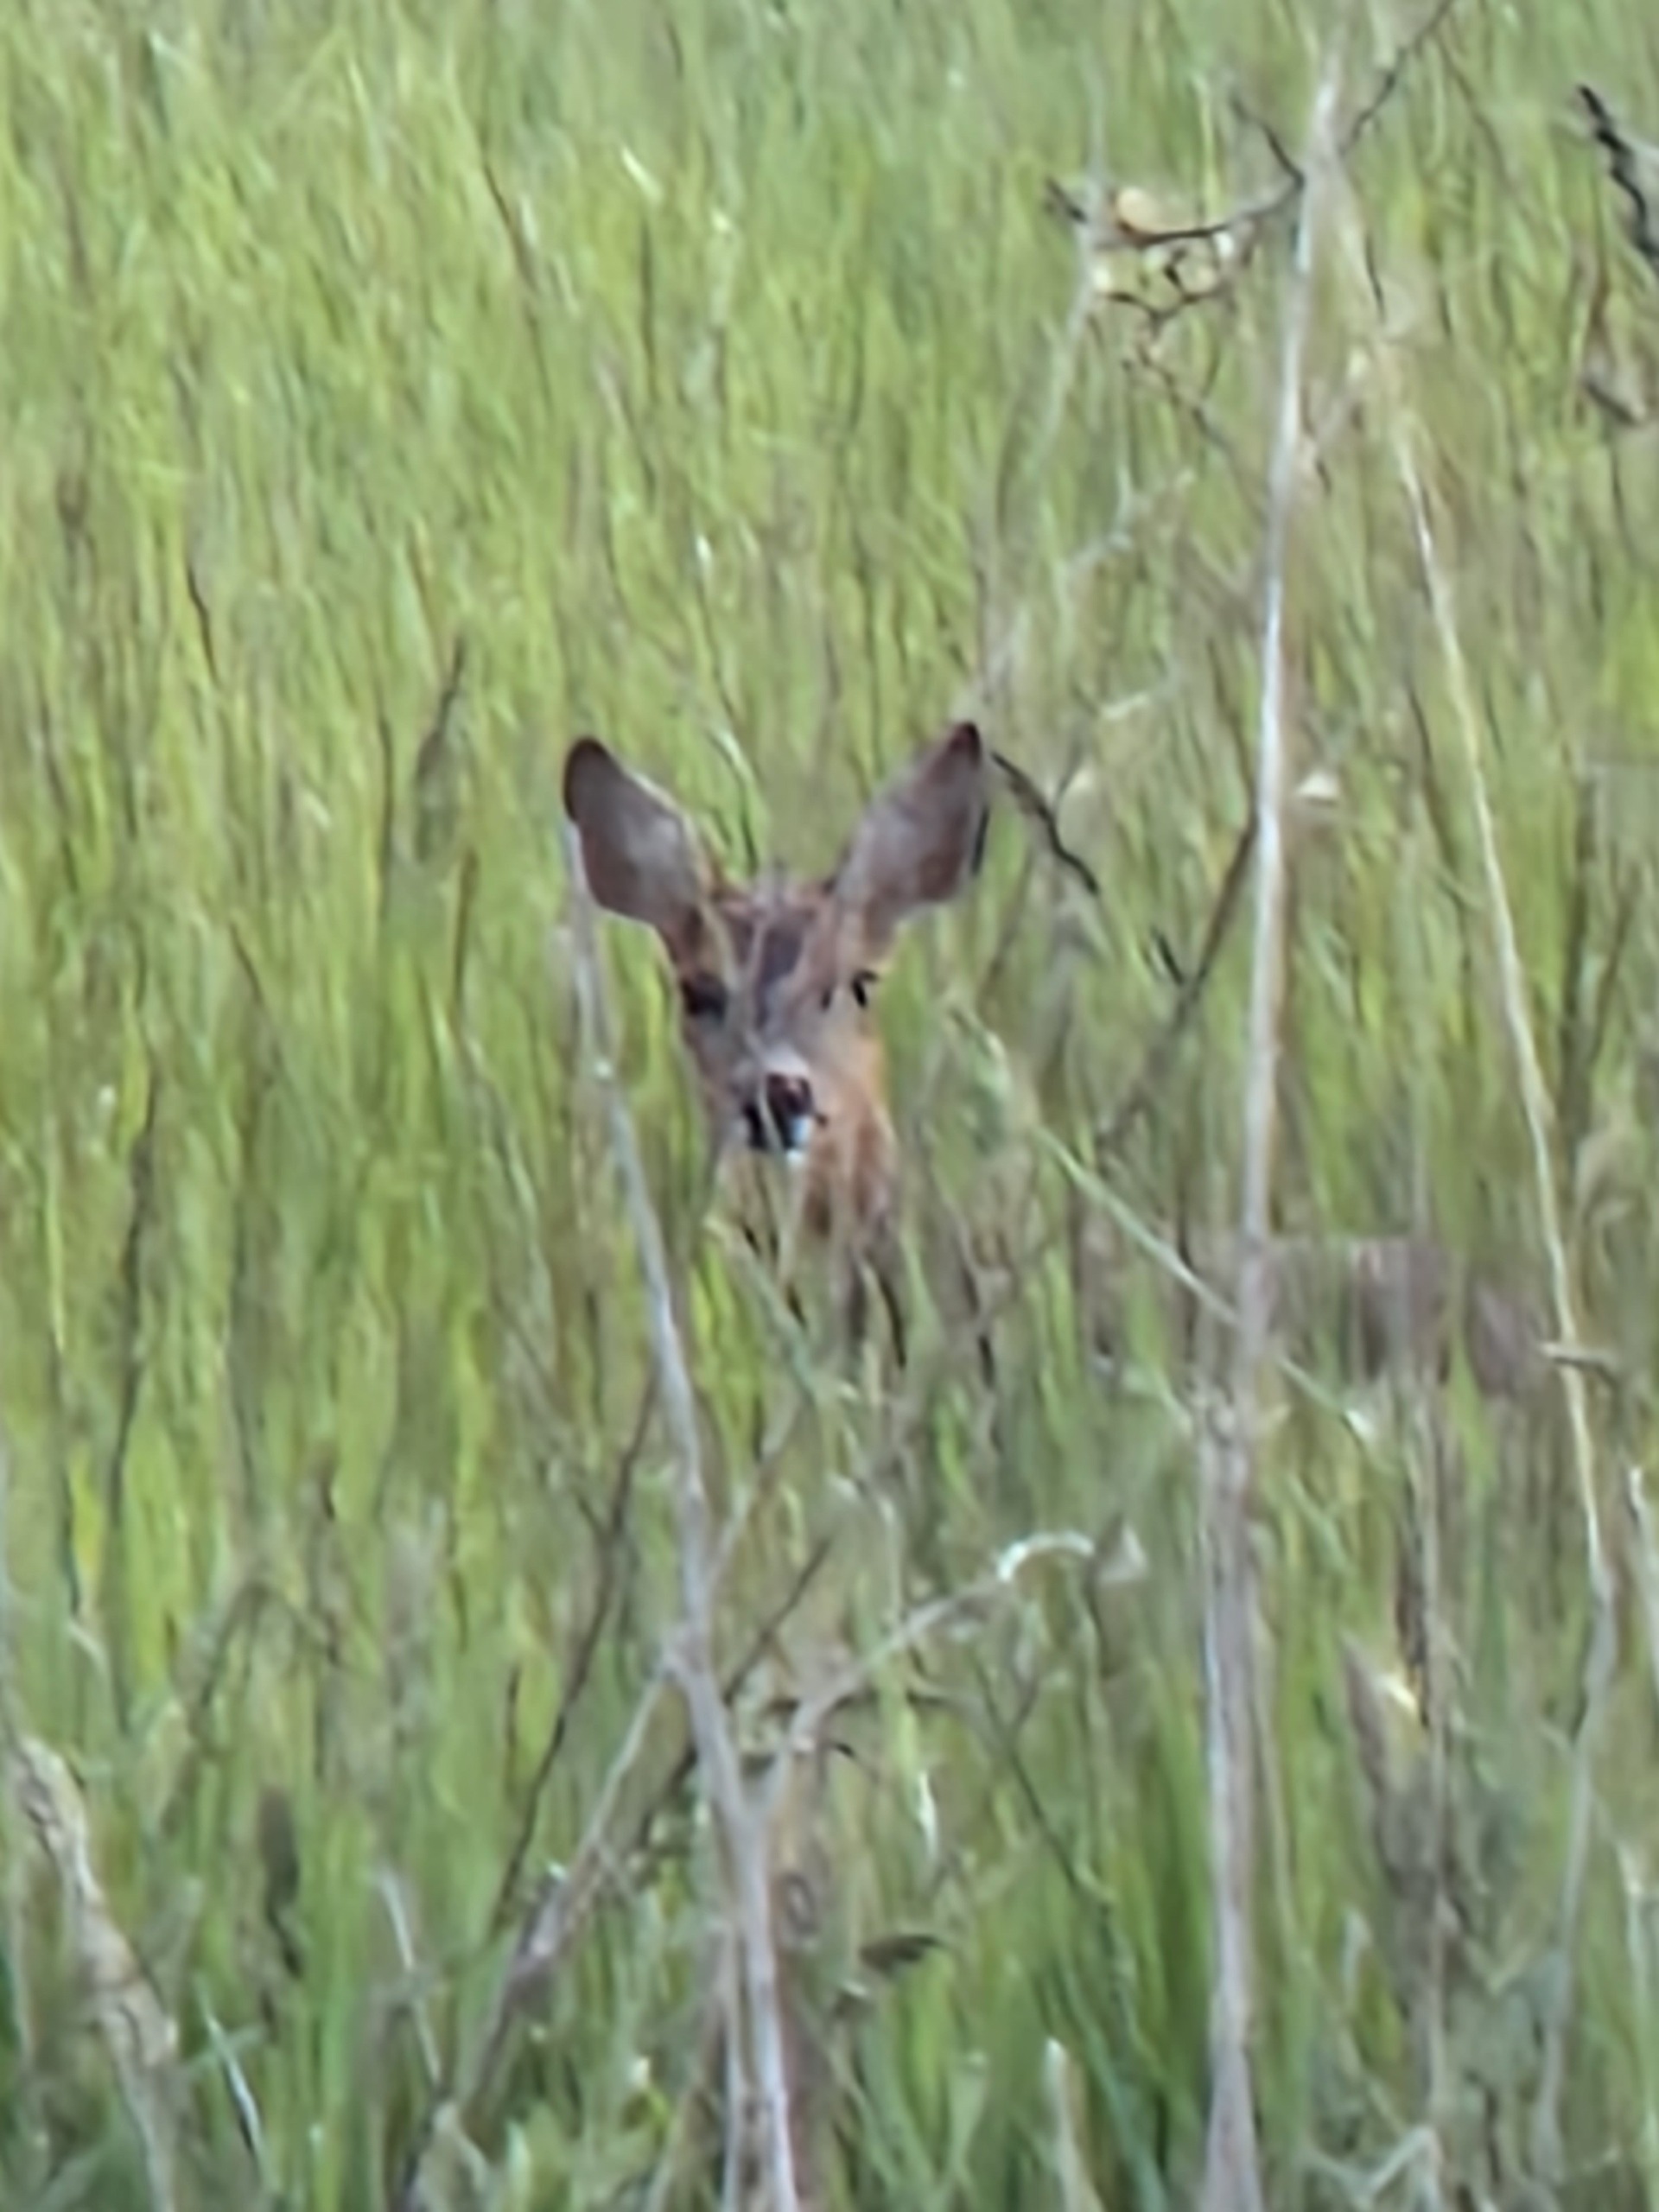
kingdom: Animalia
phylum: Chordata
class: Mammalia
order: Artiodactyla
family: Cervidae
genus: Capreolus
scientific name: Capreolus capreolus
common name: Rådyr
